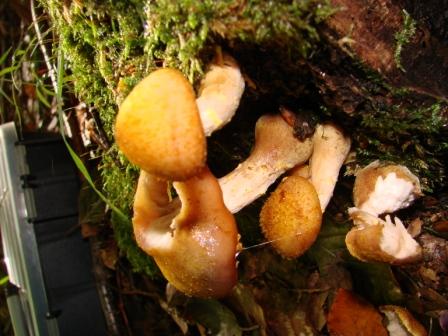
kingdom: Fungi
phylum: Basidiomycota
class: Agaricomycetes
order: Agaricales
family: Physalacriaceae
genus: Armillaria
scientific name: Armillaria lutea
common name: køllestokket honningsvamp
